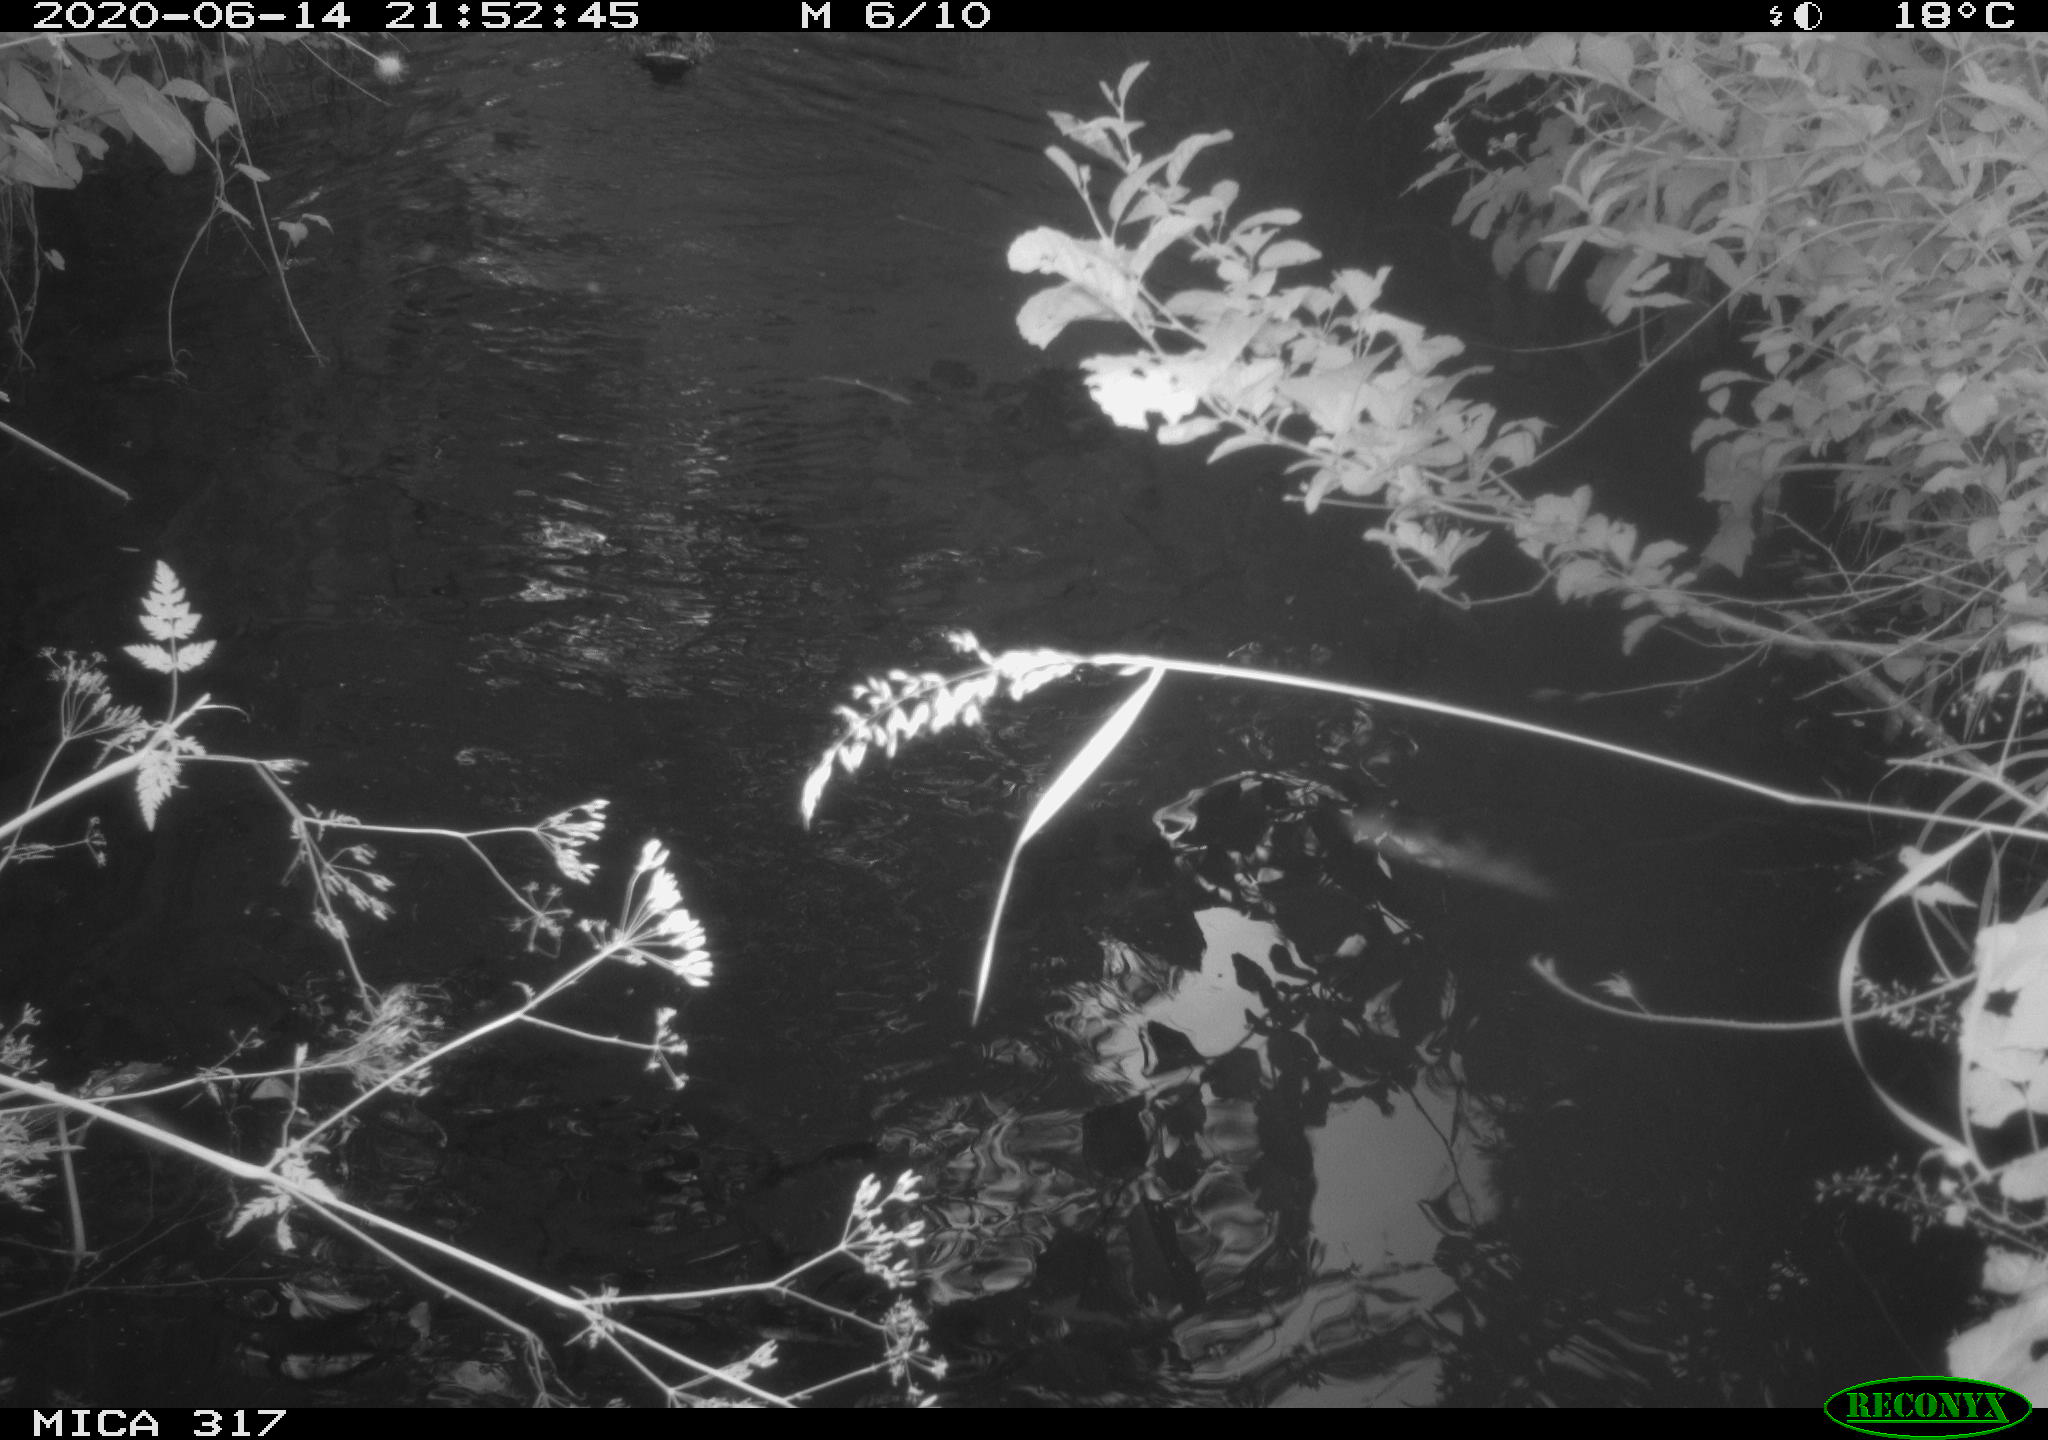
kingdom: Animalia
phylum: Chordata
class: Aves
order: Anseriformes
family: Anatidae
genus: Anas
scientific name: Anas platyrhynchos
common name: Mallard
